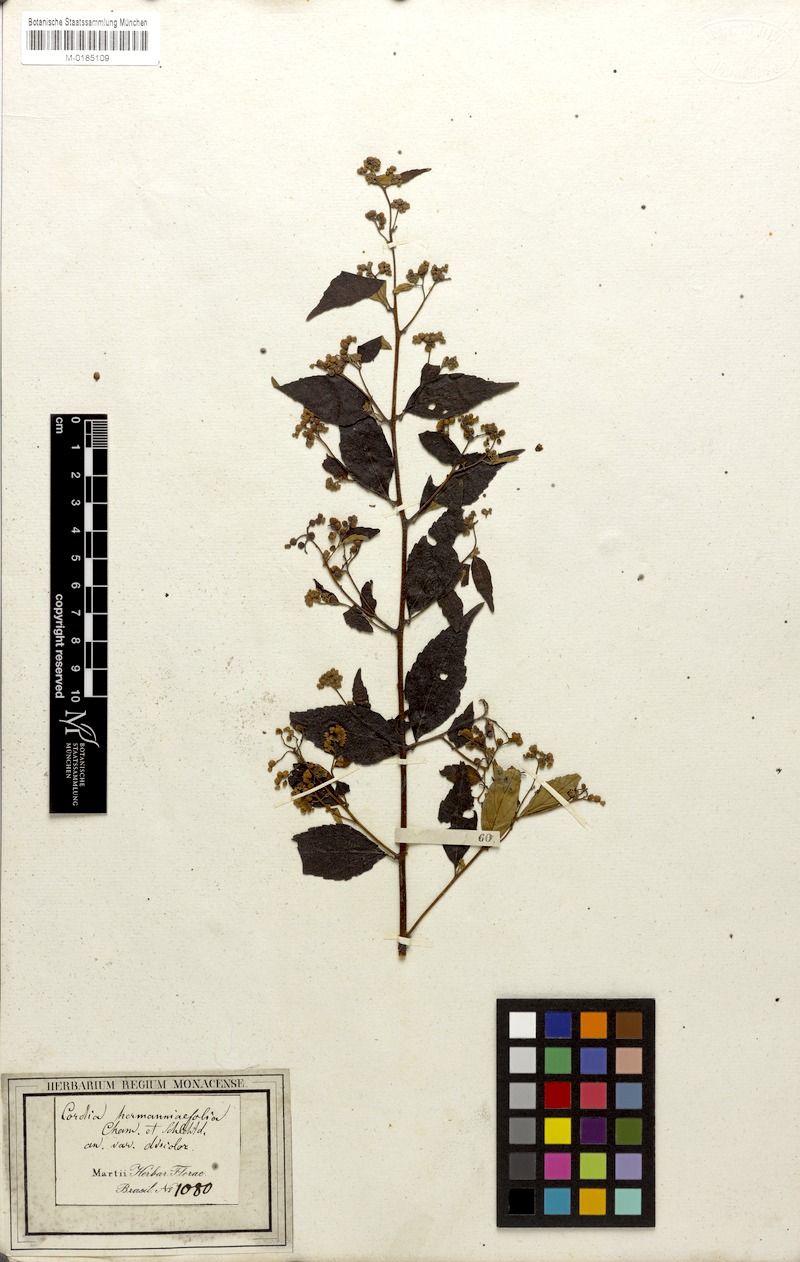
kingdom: Plantae
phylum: Tracheophyta
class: Magnoliopsida
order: Boraginales
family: Cordiaceae
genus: Varronia
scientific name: Varronia polycephala
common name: Black-sage
